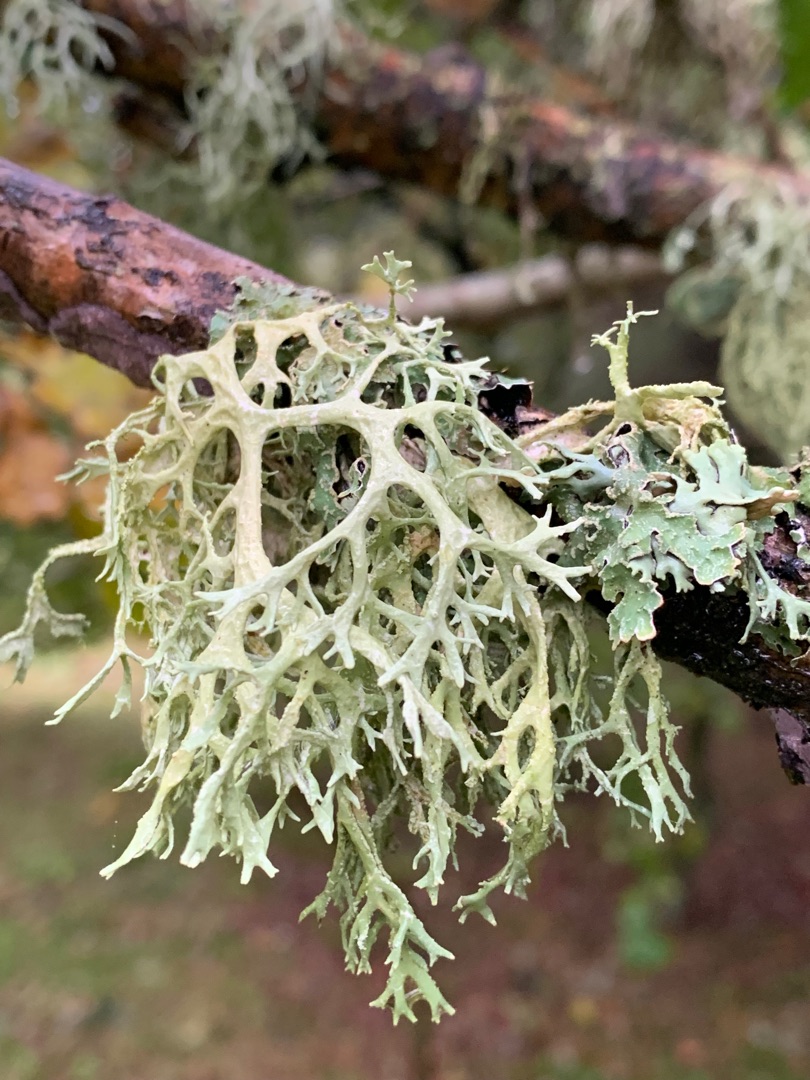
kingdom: Fungi
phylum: Ascomycota
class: Lecanoromycetes
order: Lecanorales
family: Parmeliaceae
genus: Evernia
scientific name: Evernia prunastri
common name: Almindelig slåenlav
